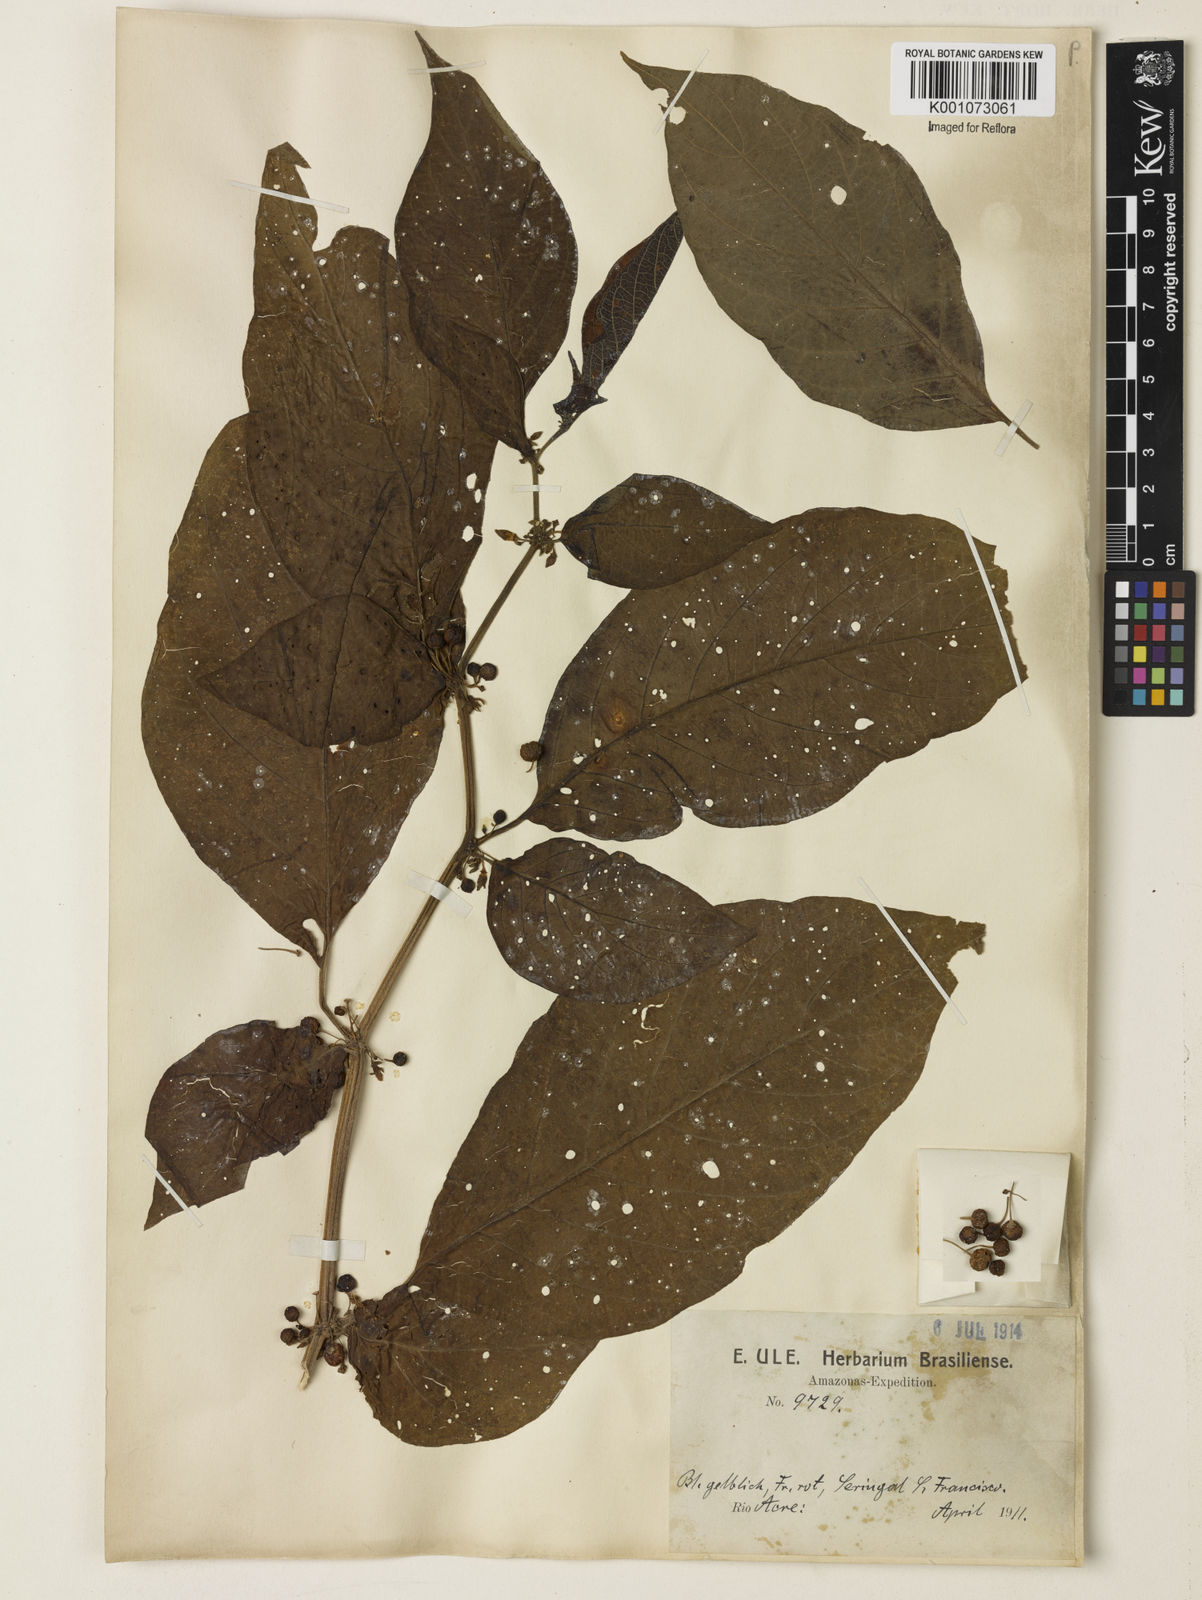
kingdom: Plantae
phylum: Tracheophyta
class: Magnoliopsida
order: Solanales
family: Solanaceae
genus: Witheringia
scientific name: Witheringia
